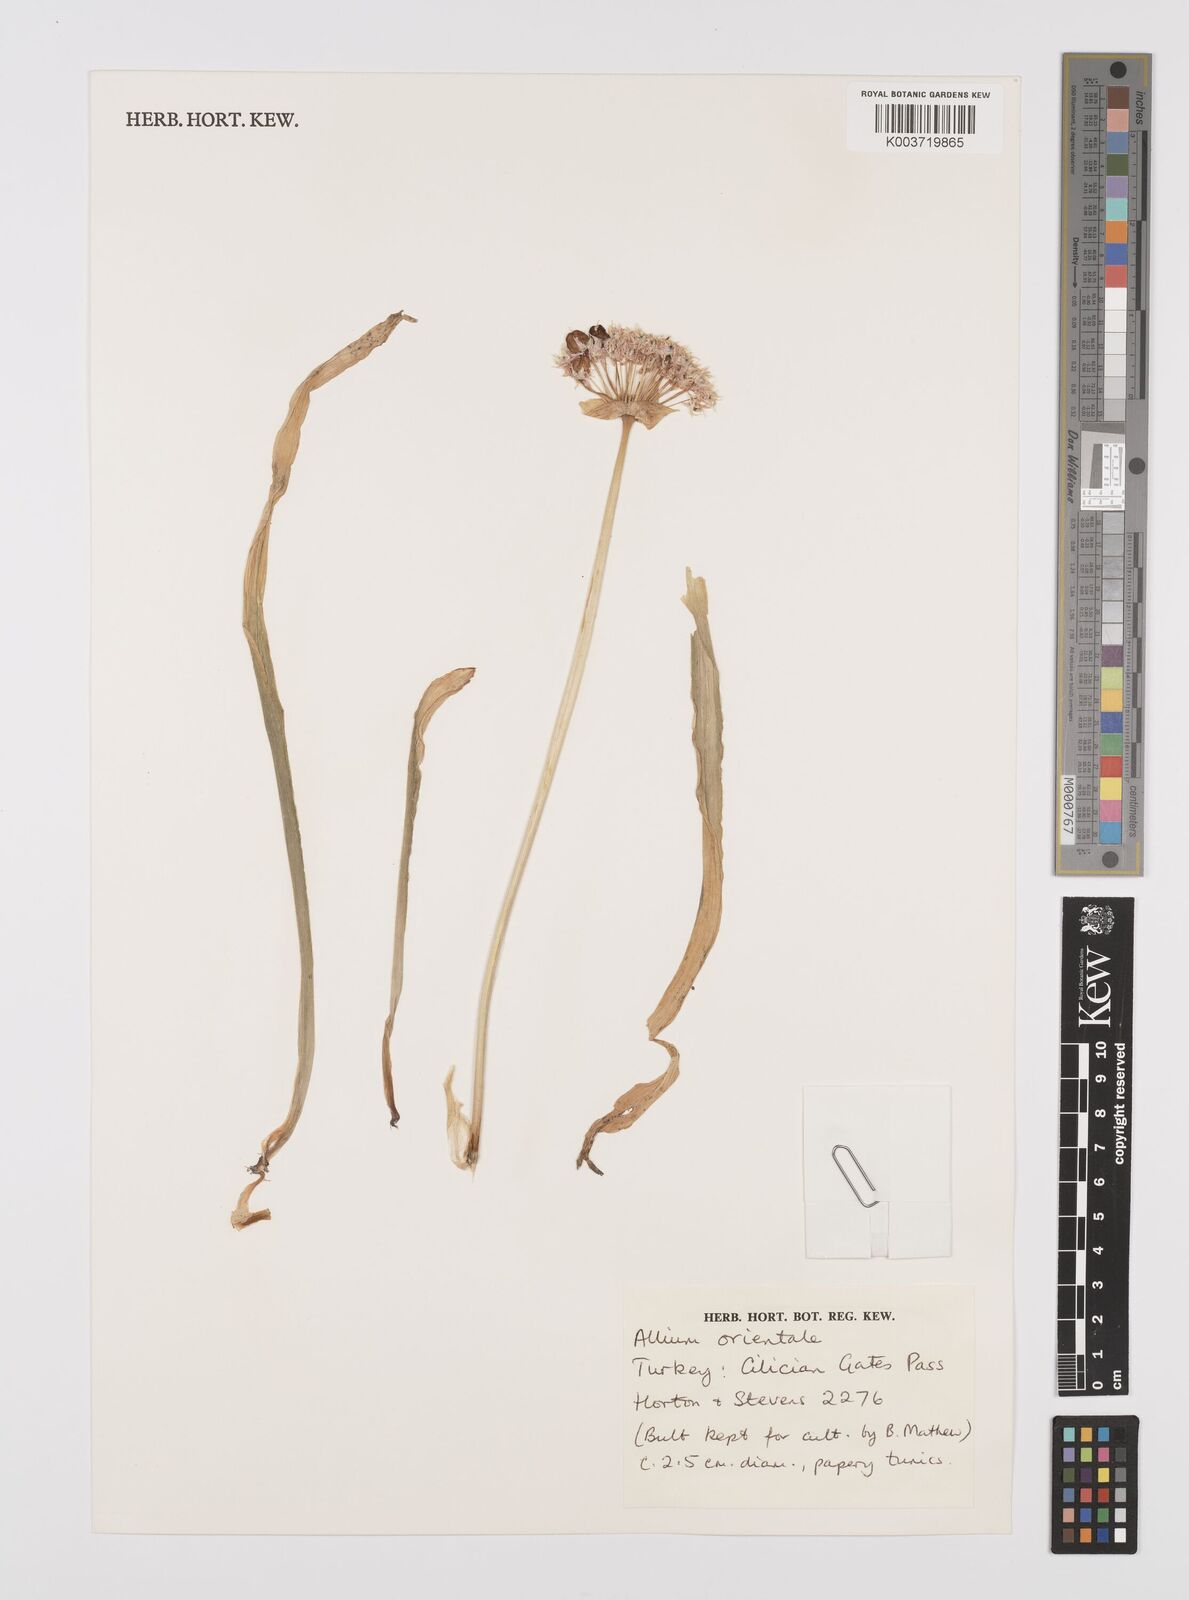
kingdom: Plantae
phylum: Tracheophyta
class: Liliopsida
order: Asparagales
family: Amaryllidaceae
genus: Allium
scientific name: Allium orientale
